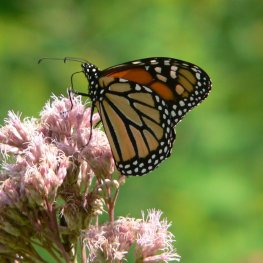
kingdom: Animalia
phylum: Arthropoda
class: Insecta
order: Lepidoptera
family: Nymphalidae
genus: Danaus
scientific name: Danaus plexippus
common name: Monarch
